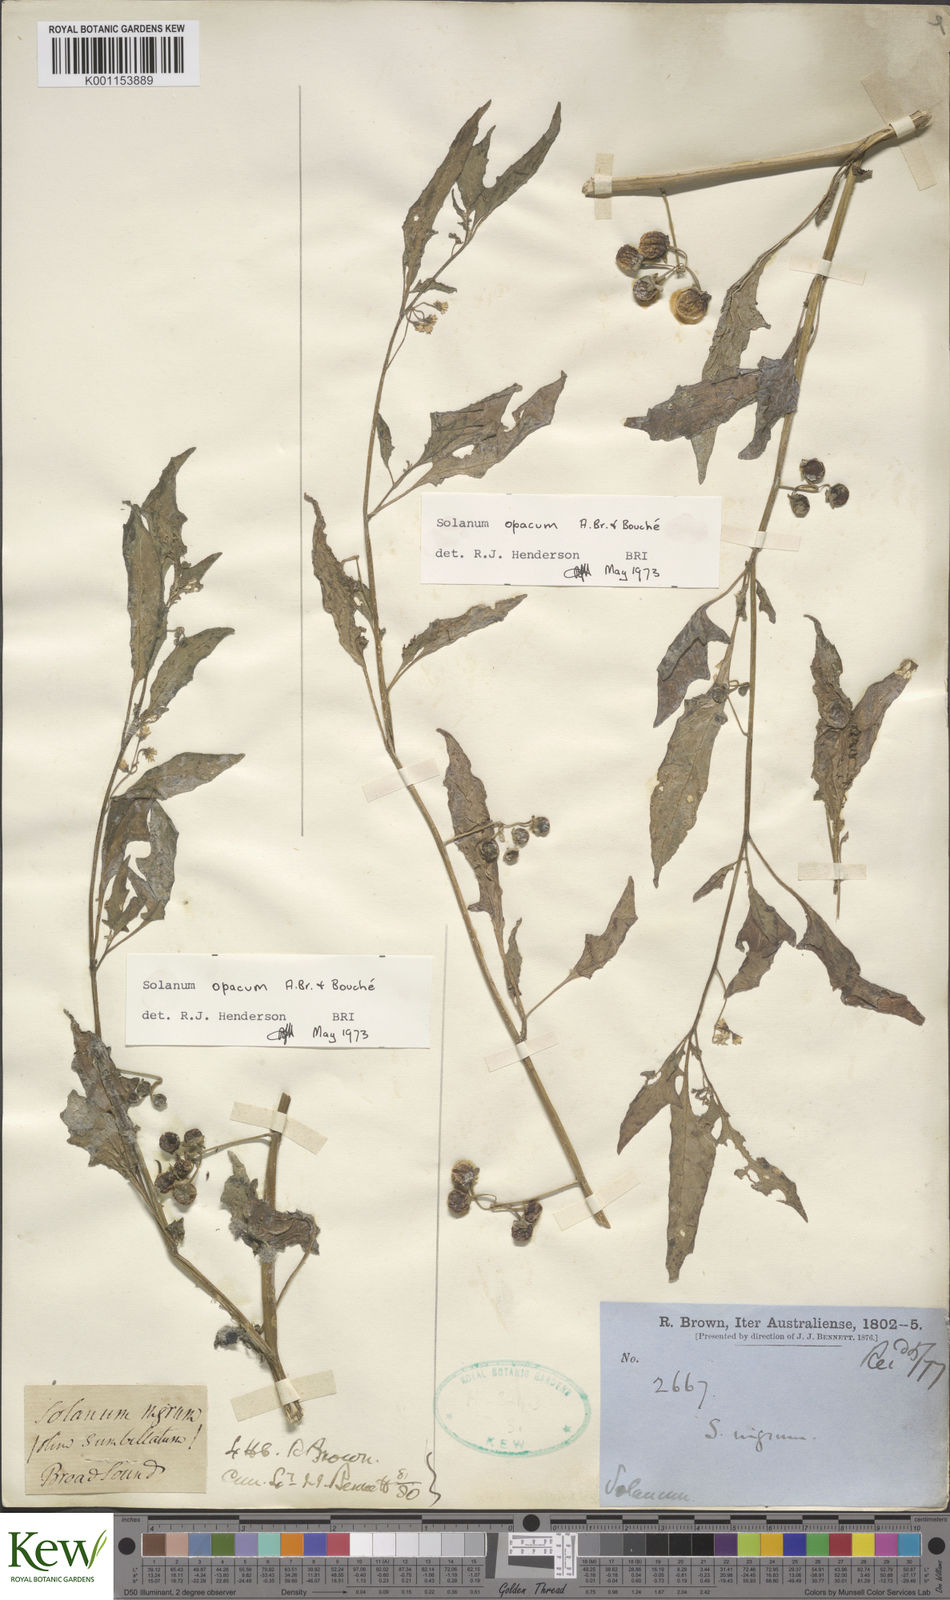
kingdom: Plantae
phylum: Tracheophyta
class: Magnoliopsida
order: Solanales
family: Solanaceae
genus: Solanum
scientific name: Solanum
